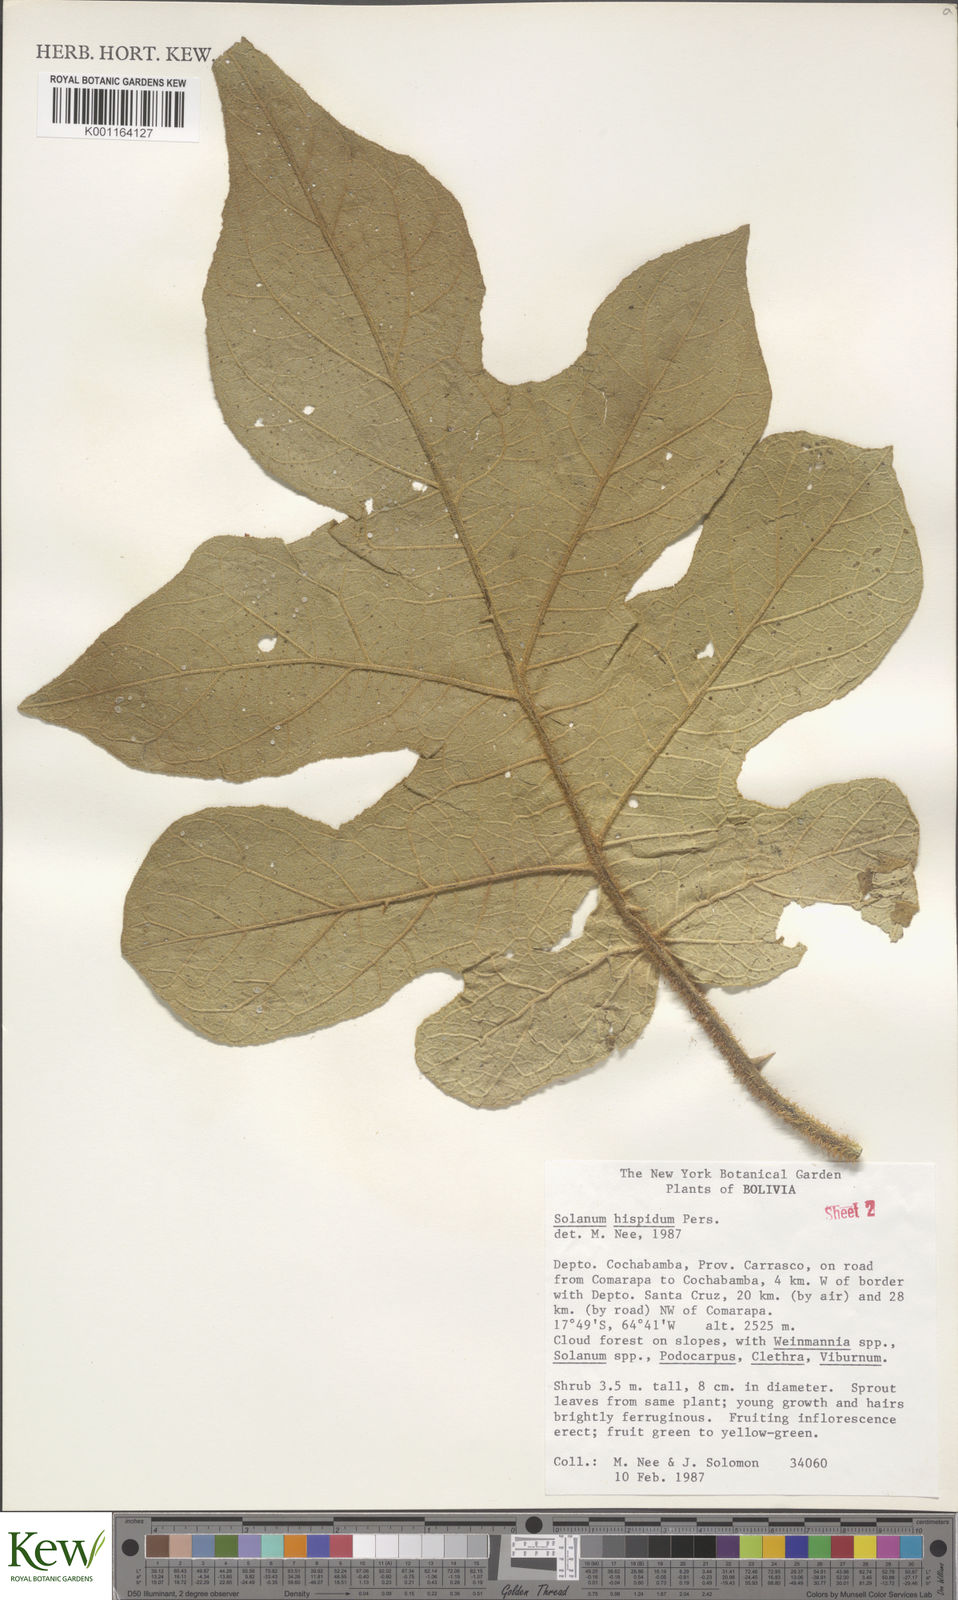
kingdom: Plantae
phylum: Tracheophyta
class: Magnoliopsida
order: Solanales
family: Solanaceae
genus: Solanum
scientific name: Solanum asperolanatum
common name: Devil's-fig
